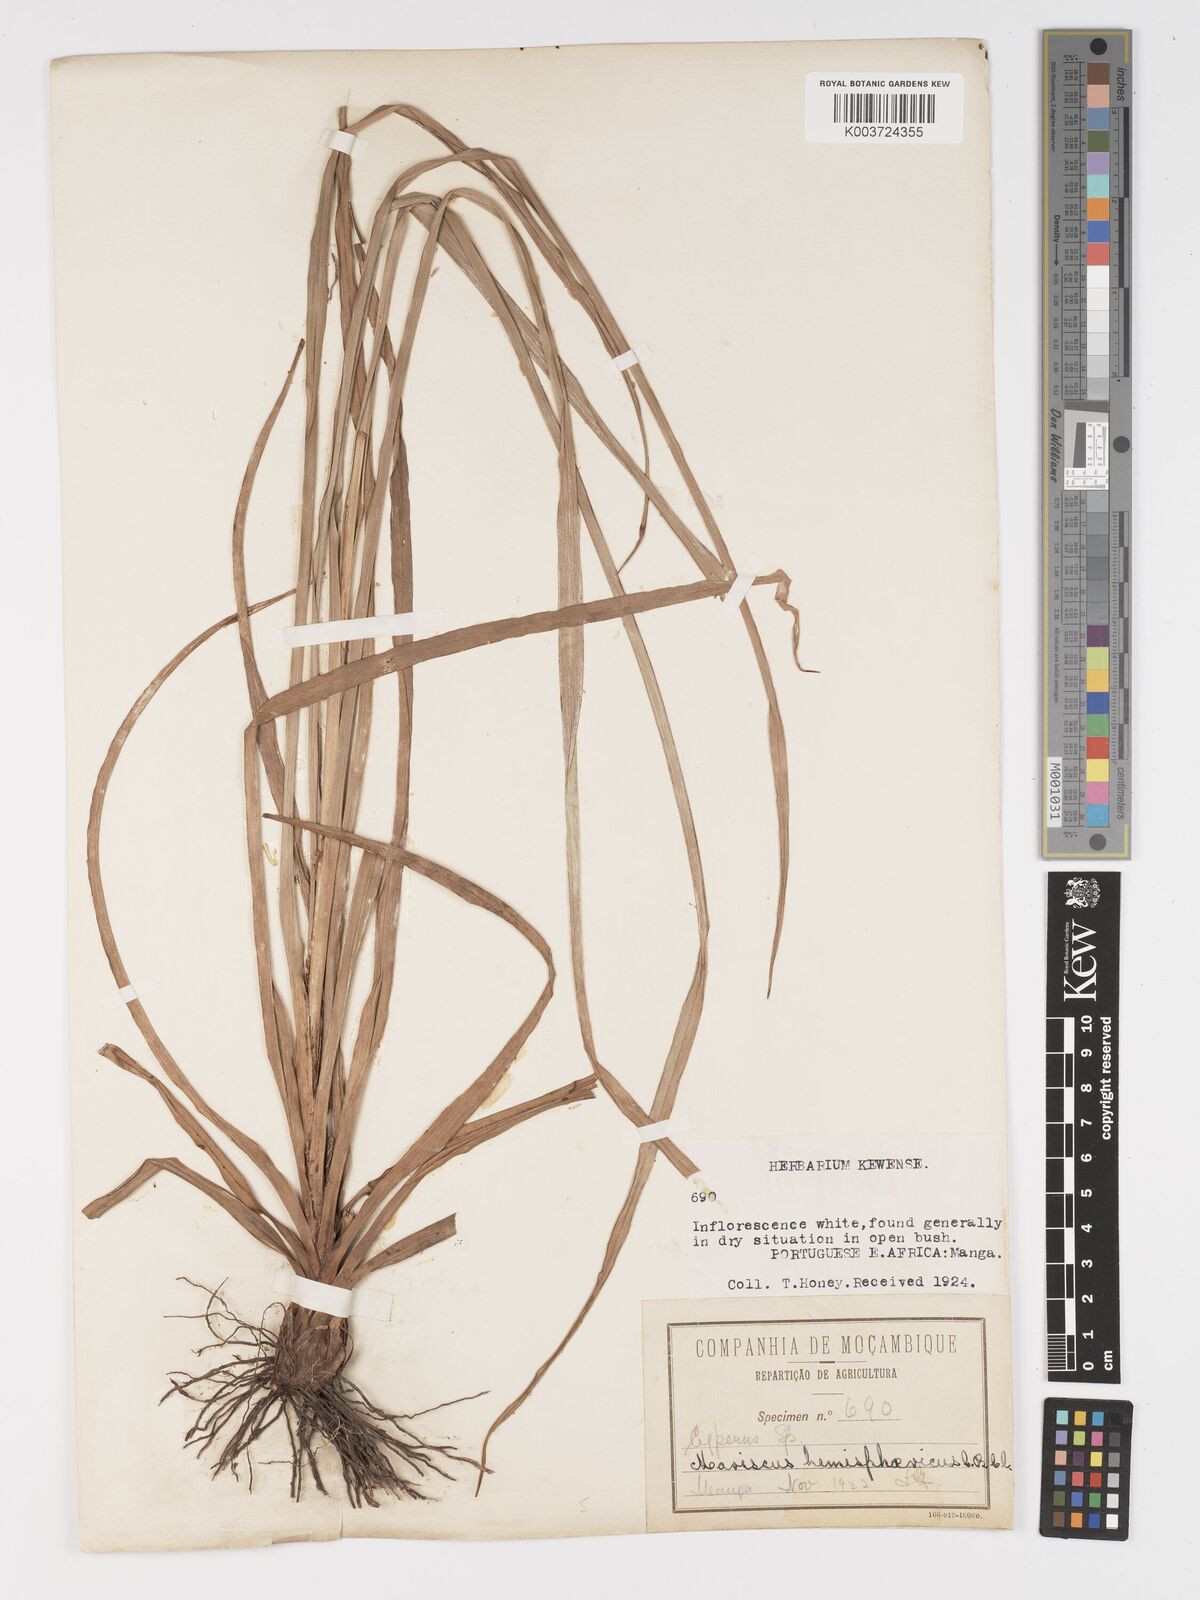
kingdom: Plantae
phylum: Tracheophyta
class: Liliopsida
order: Poales
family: Cyperaceae
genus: Cyperus
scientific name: Cyperus hemisphaericus
